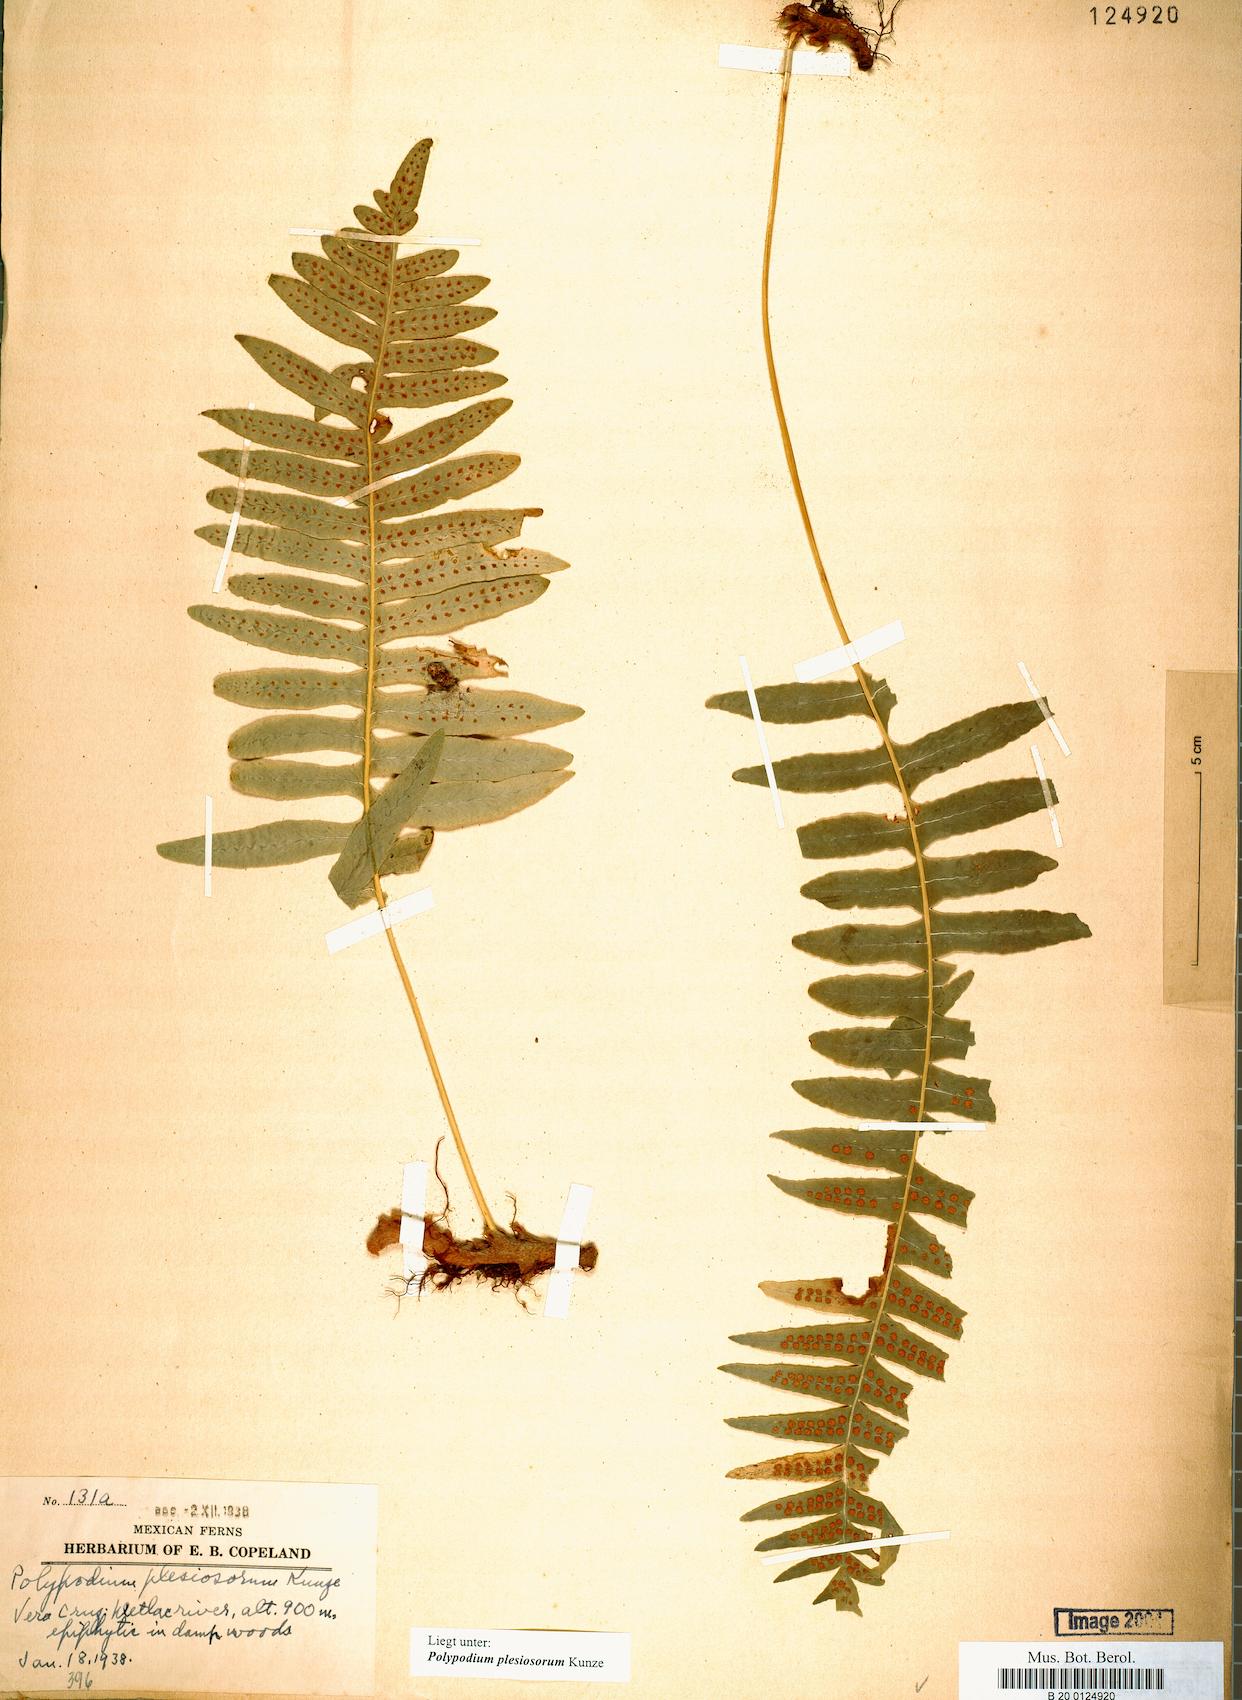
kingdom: Plantae
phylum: Tracheophyta
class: Polypodiopsida
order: Polypodiales
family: Polypodiaceae
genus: Polypodium
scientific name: Polypodium plesiosorum
